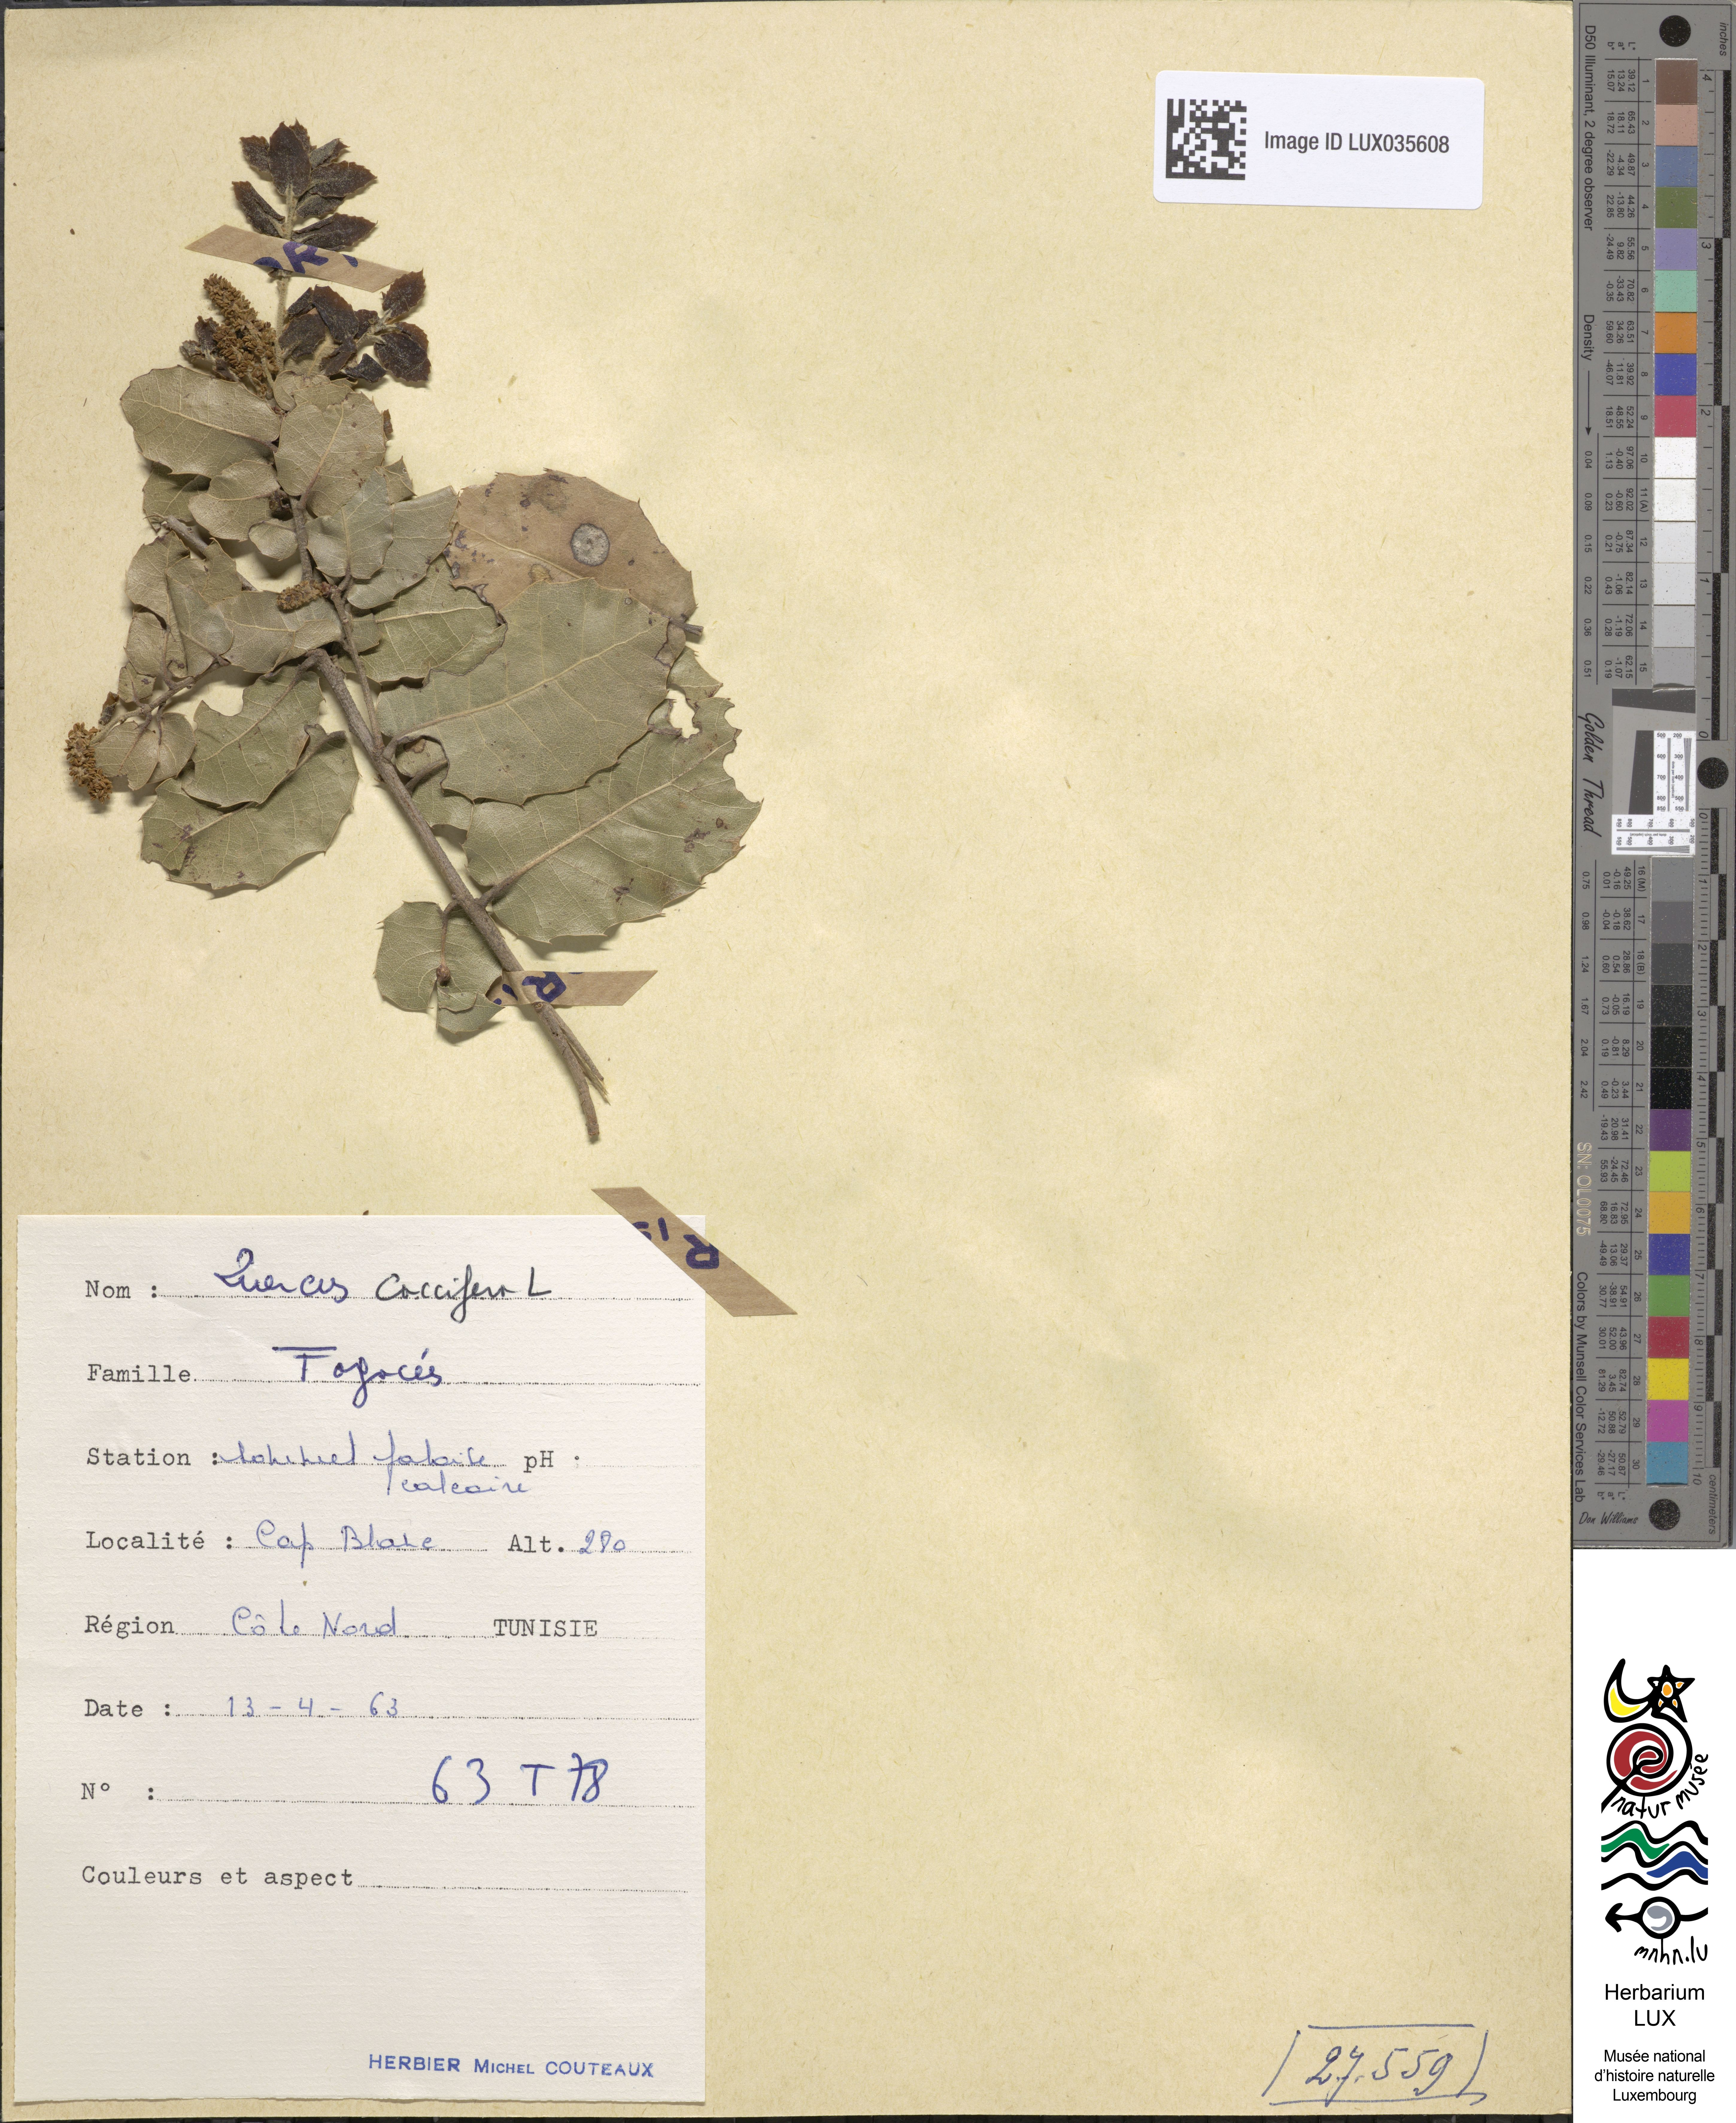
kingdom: Plantae
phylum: Tracheophyta
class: Magnoliopsida
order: Fagales
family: Fagaceae
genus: Quercus
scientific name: Quercus coccifera
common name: Kermes oak
